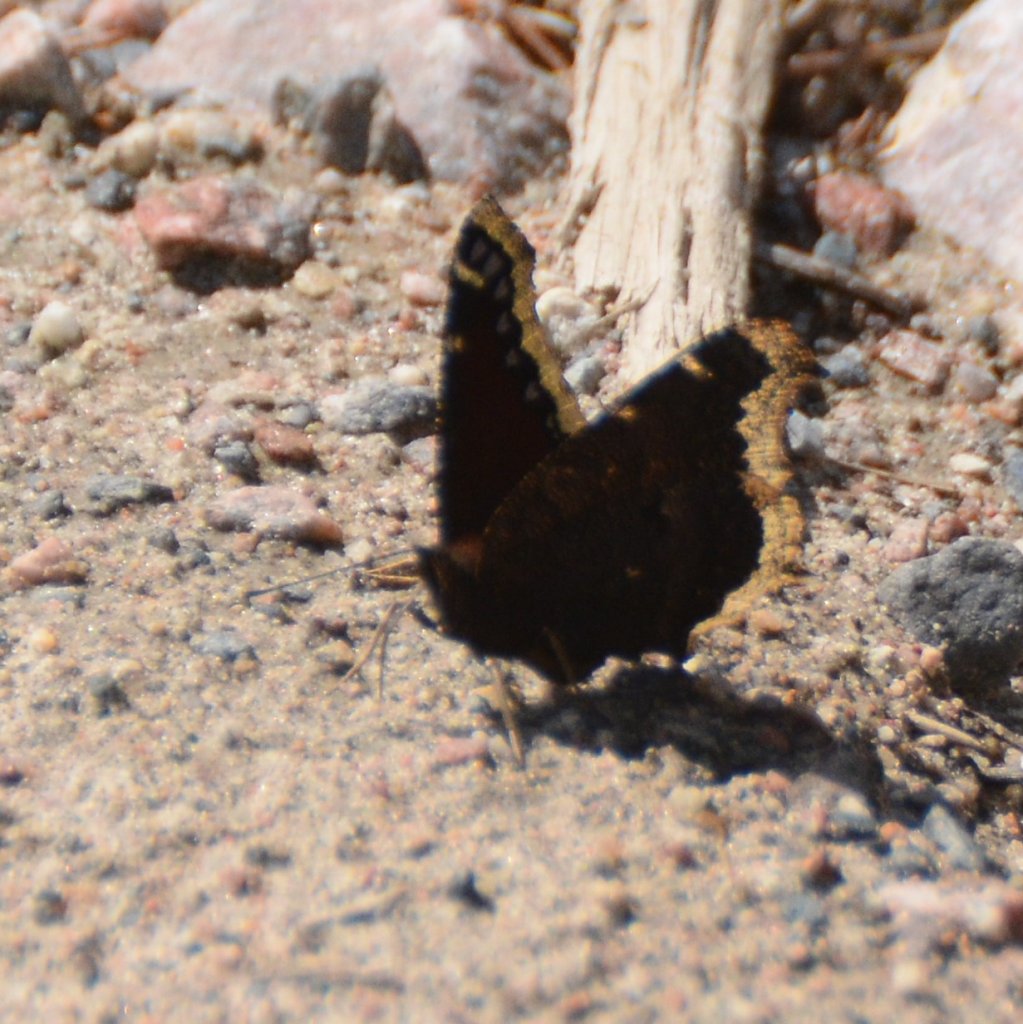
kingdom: Animalia
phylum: Arthropoda
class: Insecta
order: Lepidoptera
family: Nymphalidae
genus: Nymphalis
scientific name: Nymphalis antiopa
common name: Mourning Cloak
